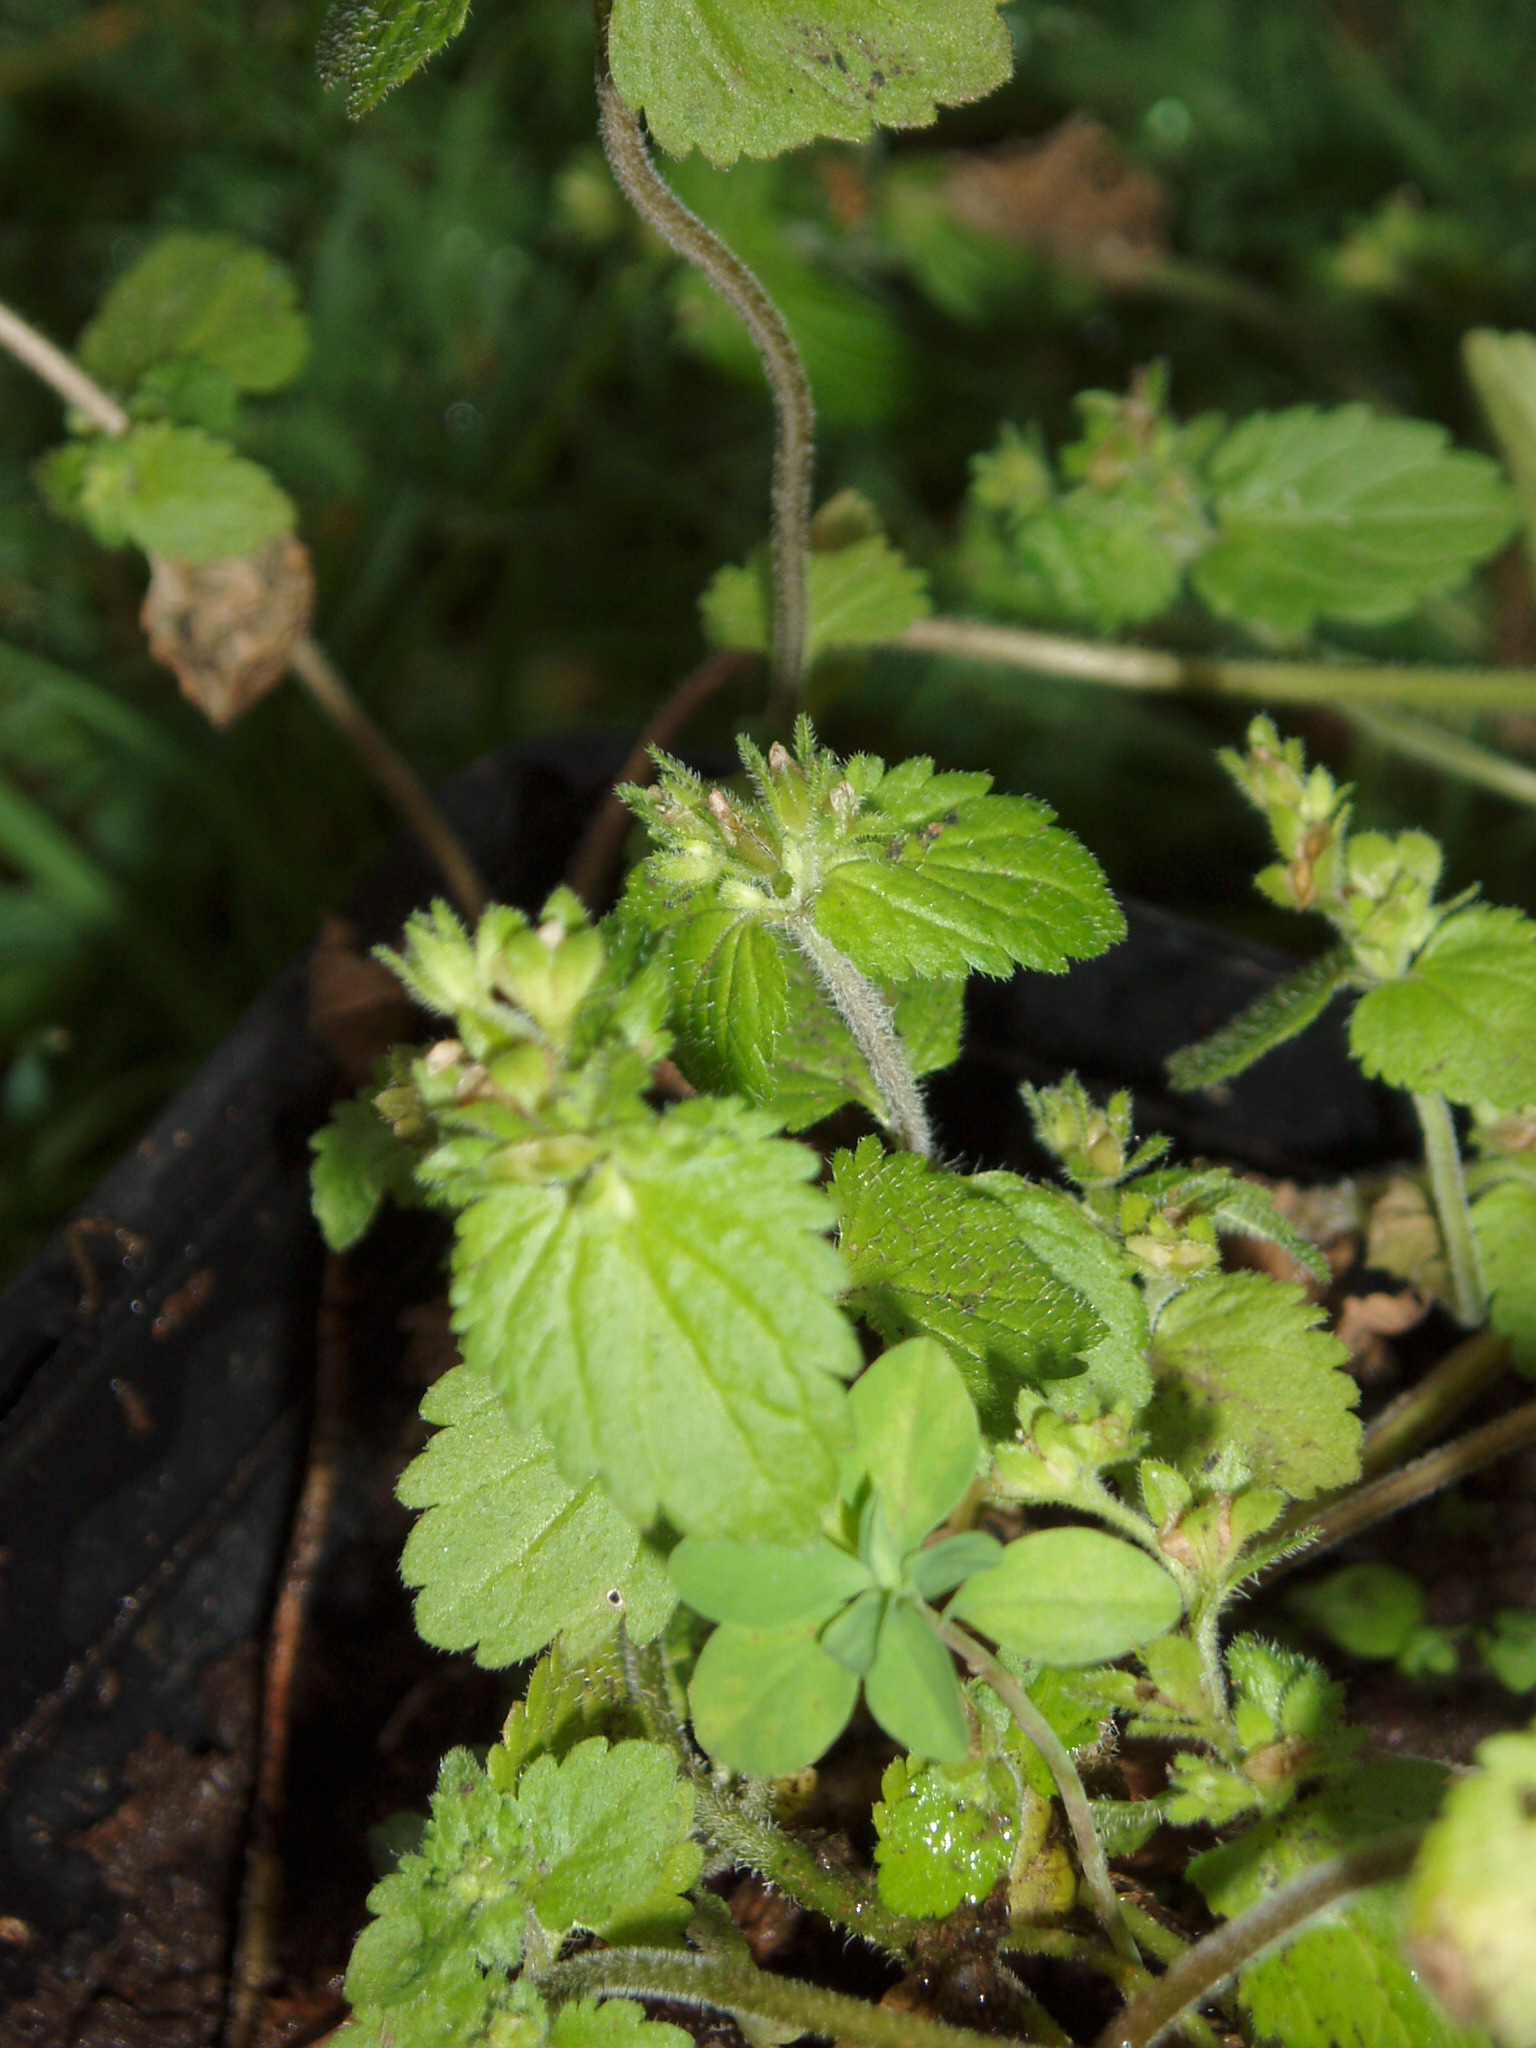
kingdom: Plantae
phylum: Tracheophyta
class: Magnoliopsida
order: Lamiales
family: Plantaginaceae
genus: Veronica
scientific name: Veronica javanica
